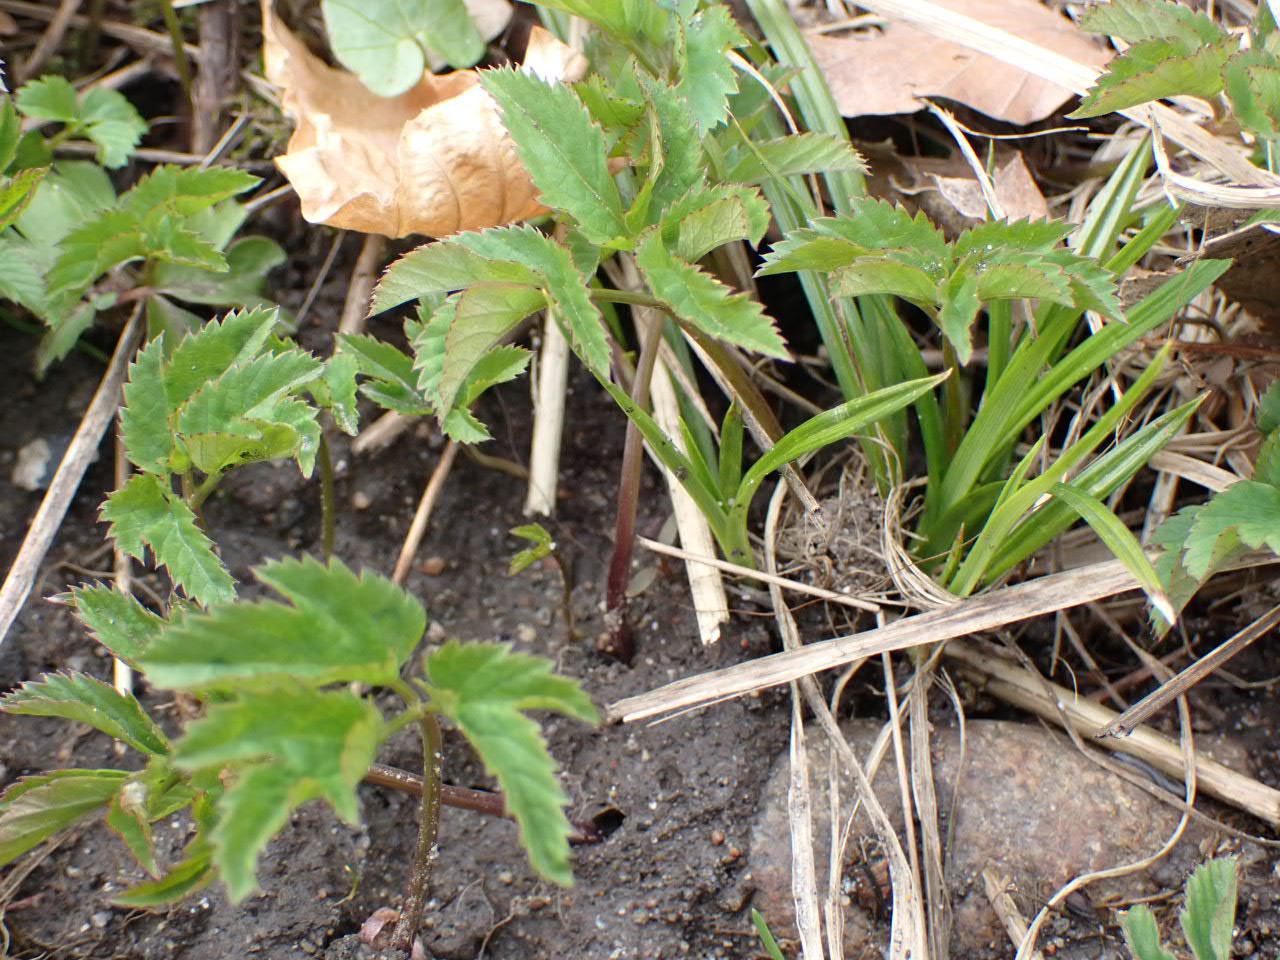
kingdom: Plantae
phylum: Tracheophyta
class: Magnoliopsida
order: Apiales
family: Apiaceae
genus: Aegopodium
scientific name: Aegopodium podagraria
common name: Skvalderkål
